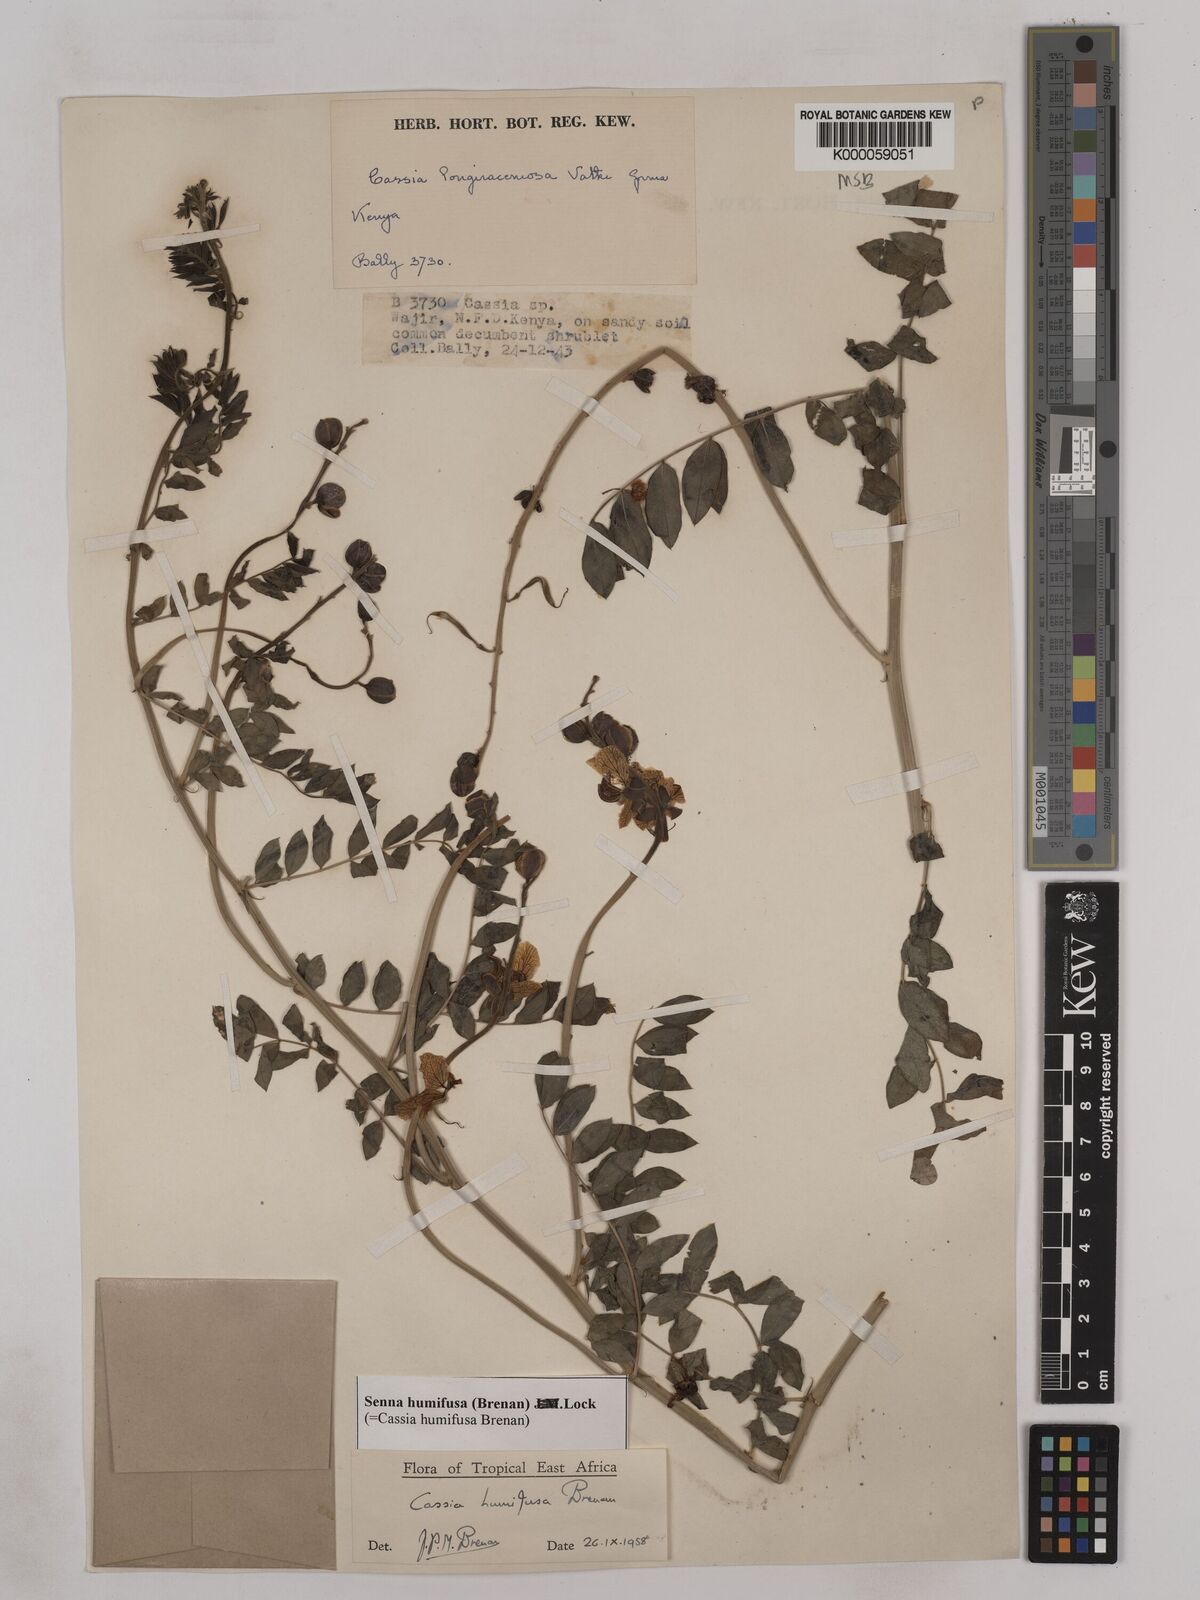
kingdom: Plantae
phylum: Tracheophyta
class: Magnoliopsida
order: Fabales
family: Fabaceae
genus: Senna
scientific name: Senna humifusa
